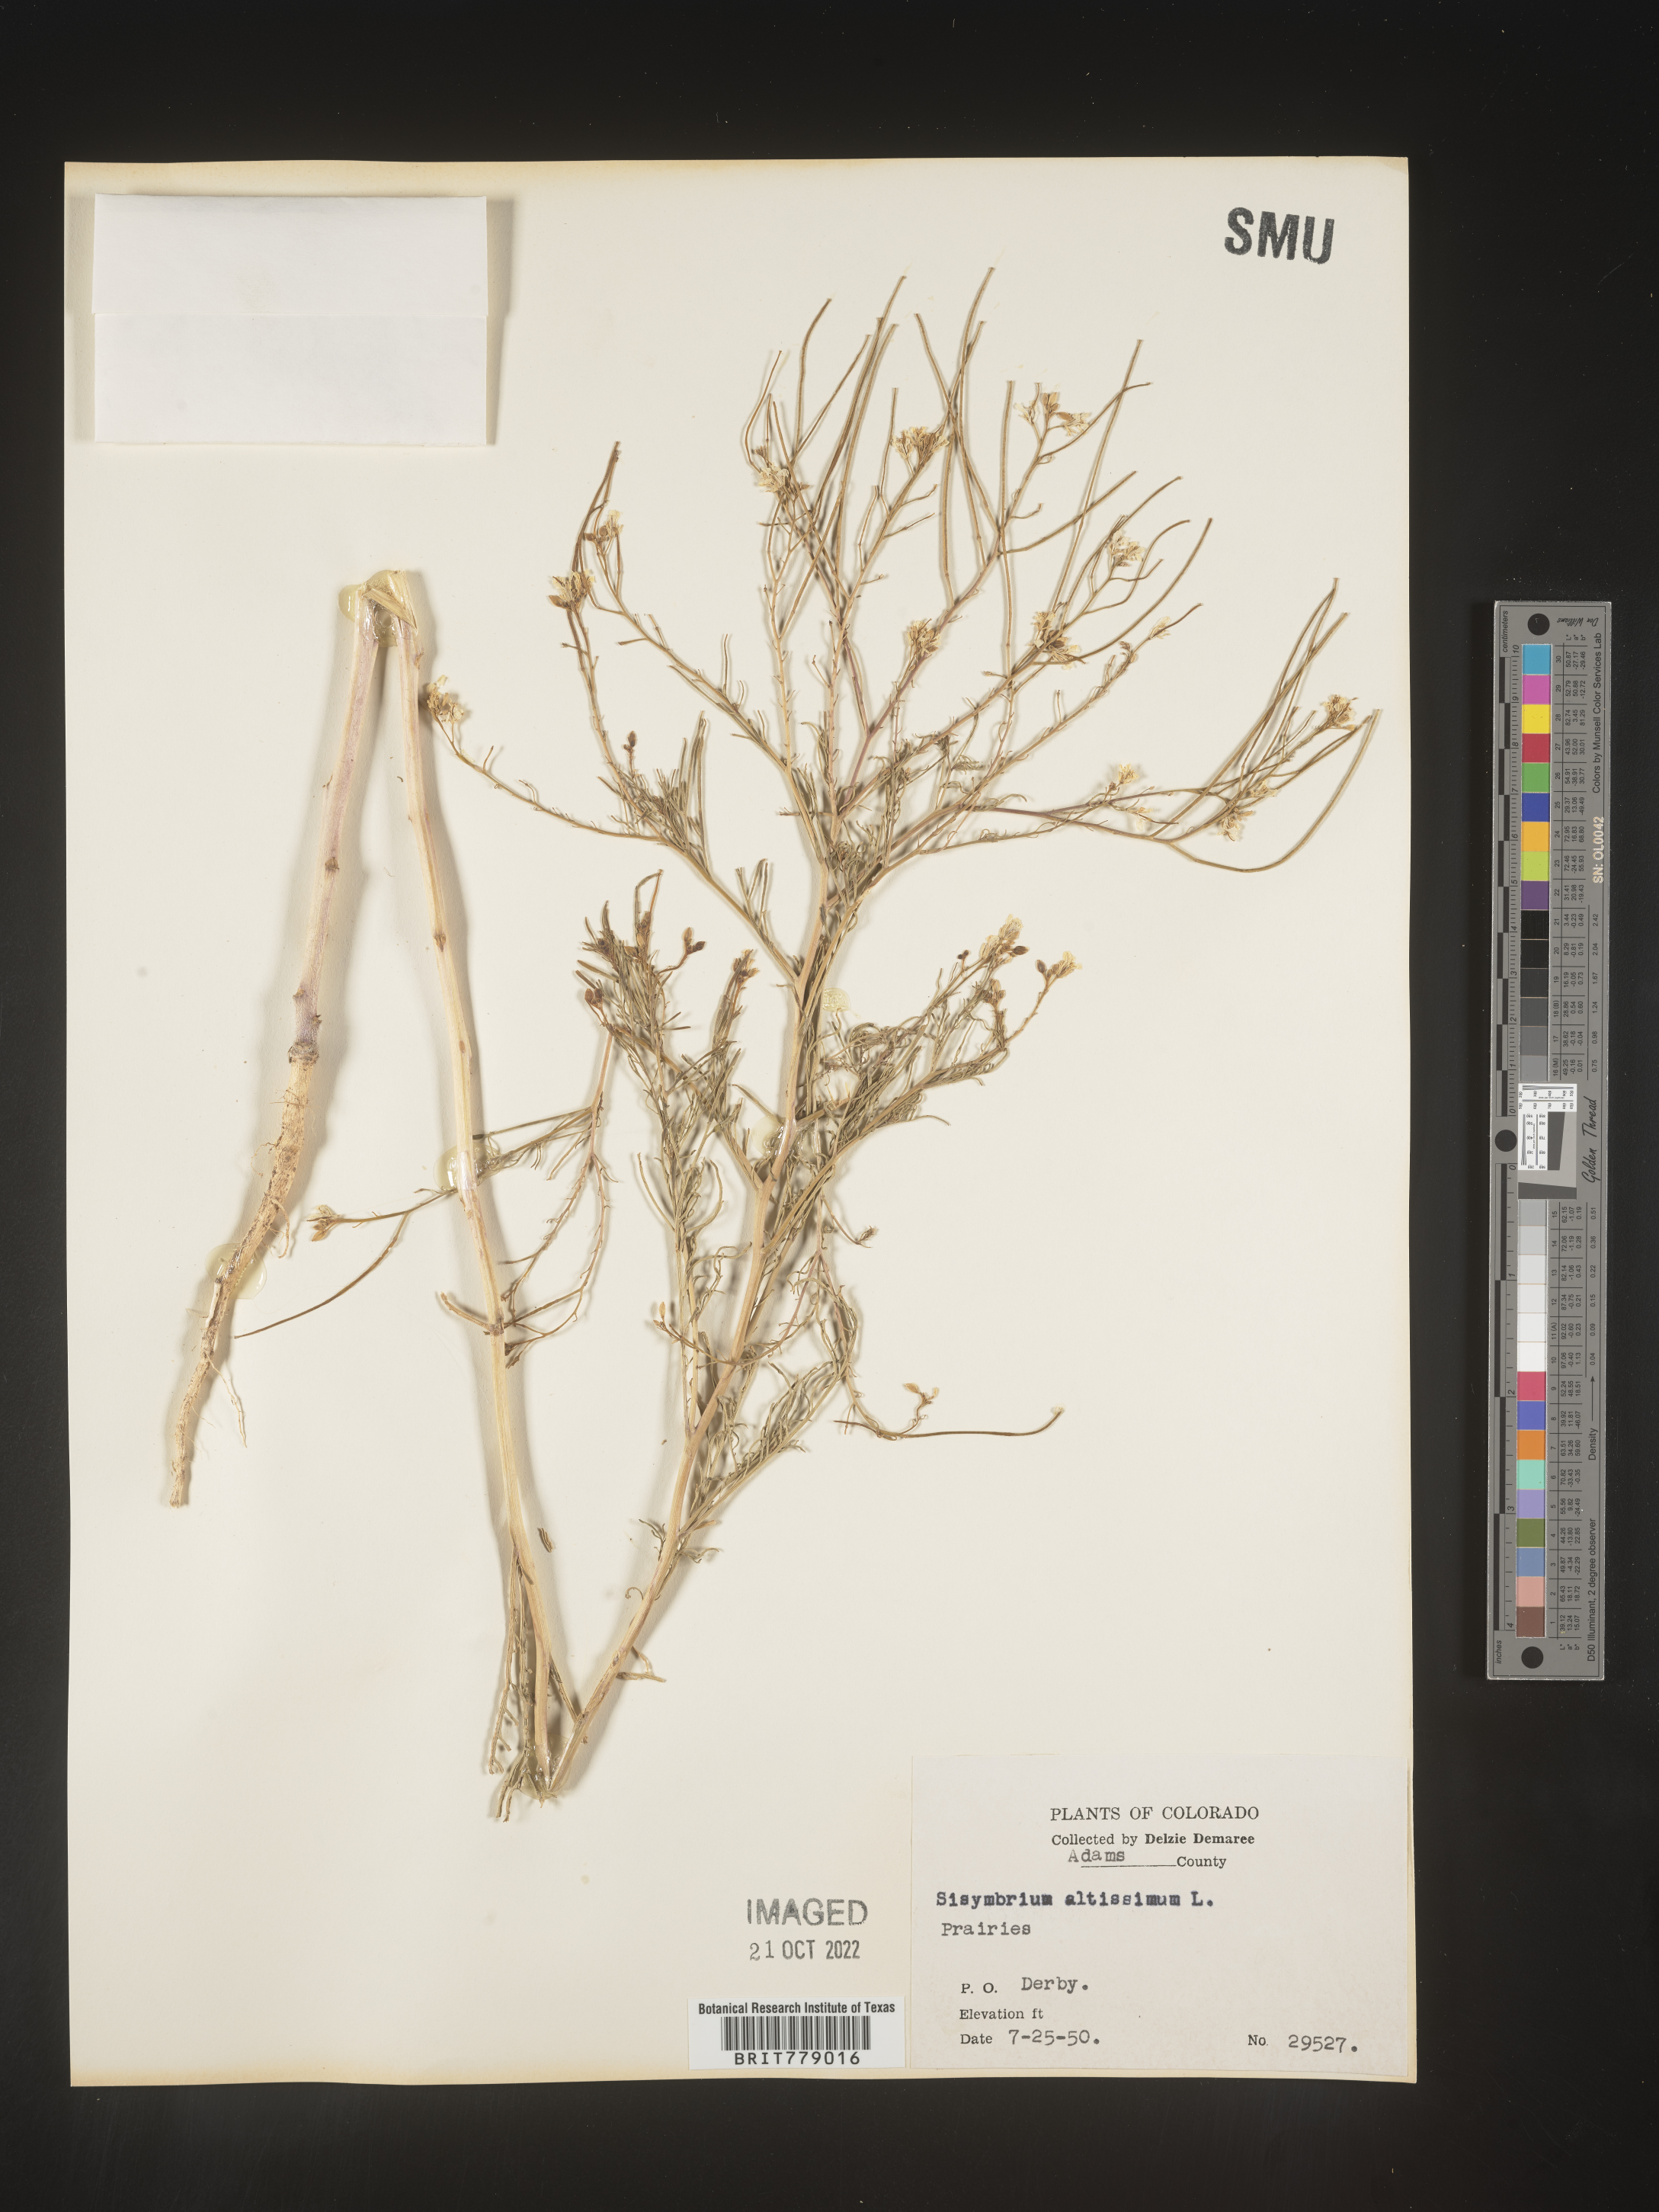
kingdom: Plantae
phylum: Tracheophyta
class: Magnoliopsida
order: Brassicales
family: Brassicaceae
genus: Sisymbrium
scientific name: Sisymbrium altissimum
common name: Tall rocket
